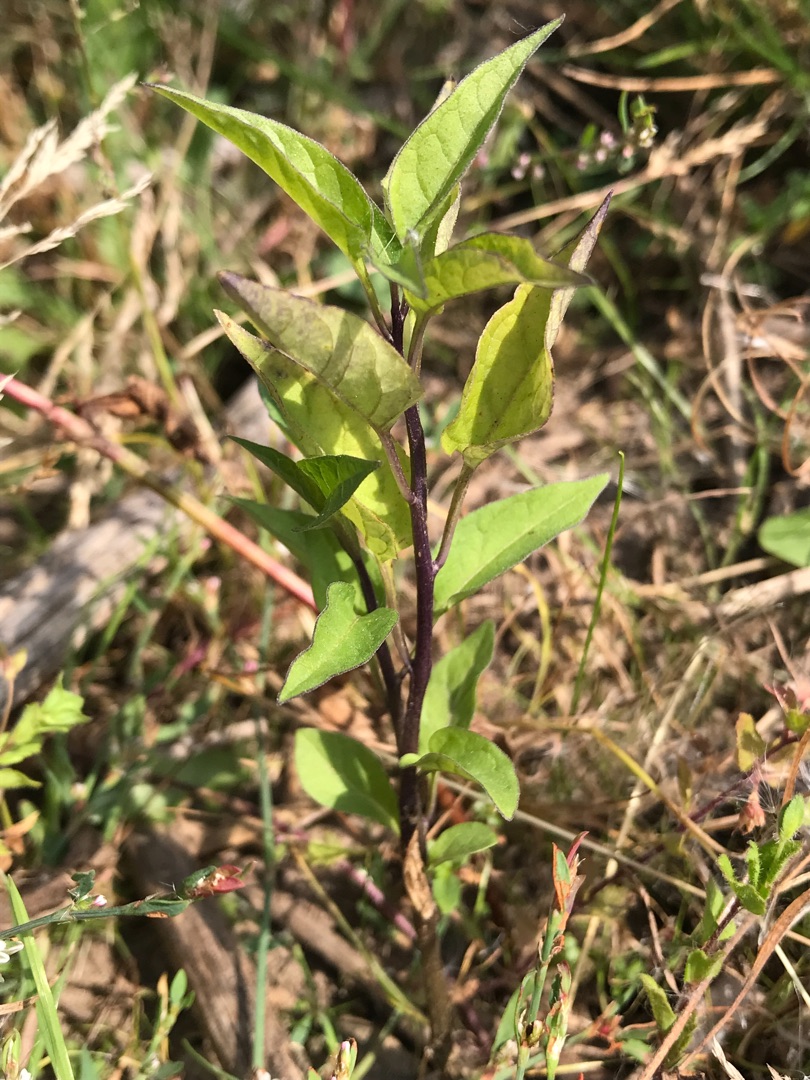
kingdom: Plantae
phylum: Tracheophyta
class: Magnoliopsida
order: Solanales
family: Solanaceae
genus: Solanum
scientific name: Solanum dulcamara
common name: Bittersød natskygge
